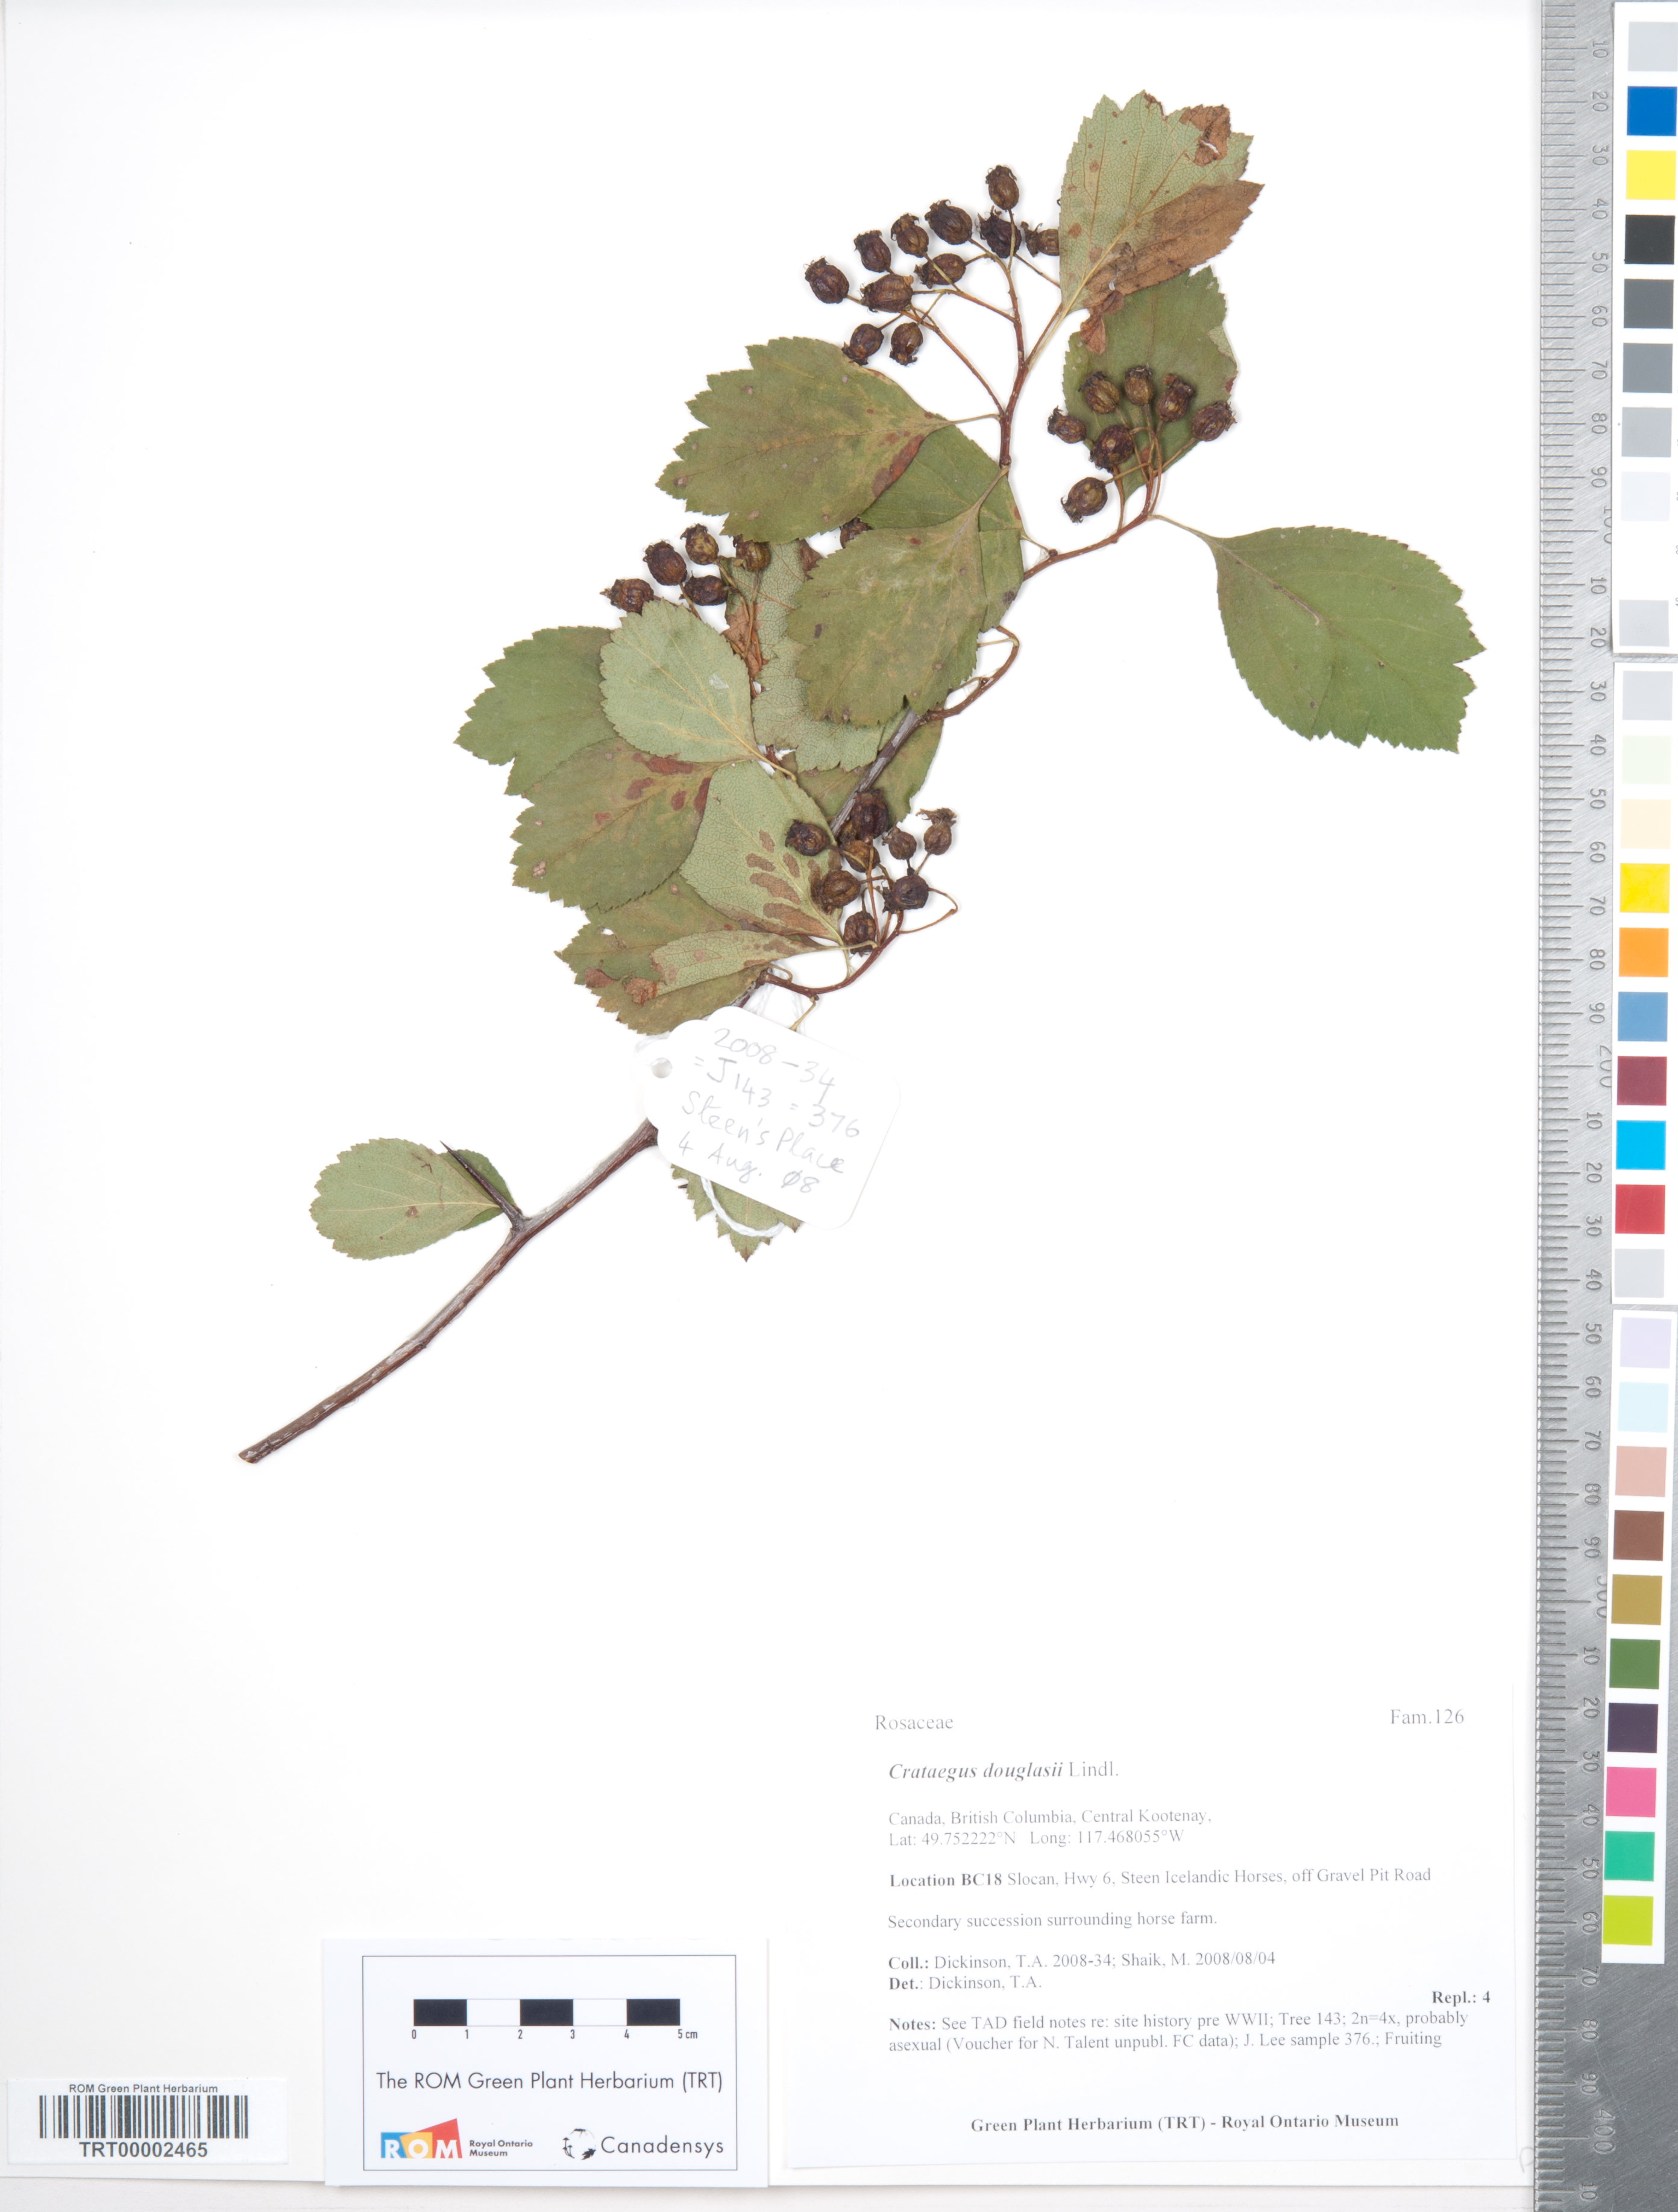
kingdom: Plantae
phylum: Tracheophyta
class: Magnoliopsida
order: Rosales
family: Rosaceae
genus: Crataegus
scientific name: Crataegus douglasii
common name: Black hawthorn
